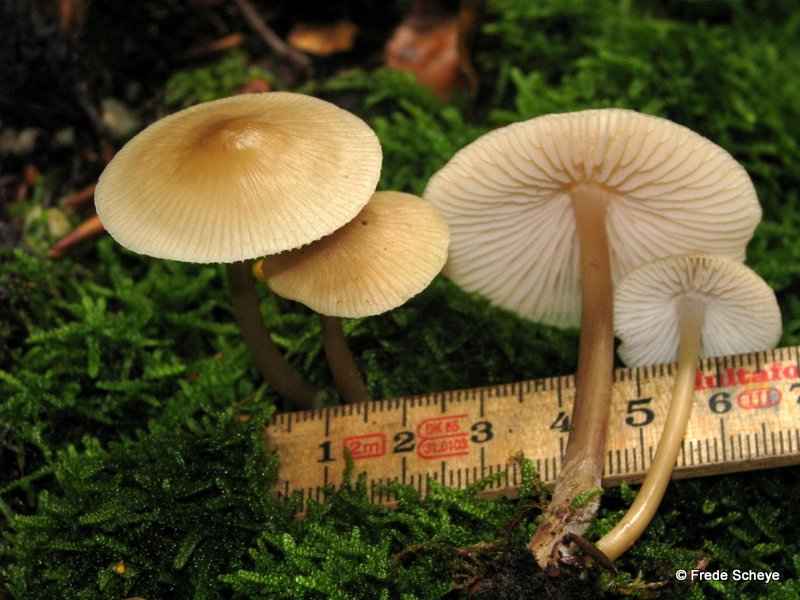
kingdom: Fungi
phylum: Basidiomycota
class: Agaricomycetes
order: Agaricales
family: Mycenaceae
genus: Mycena
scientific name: Mycena galericulata
